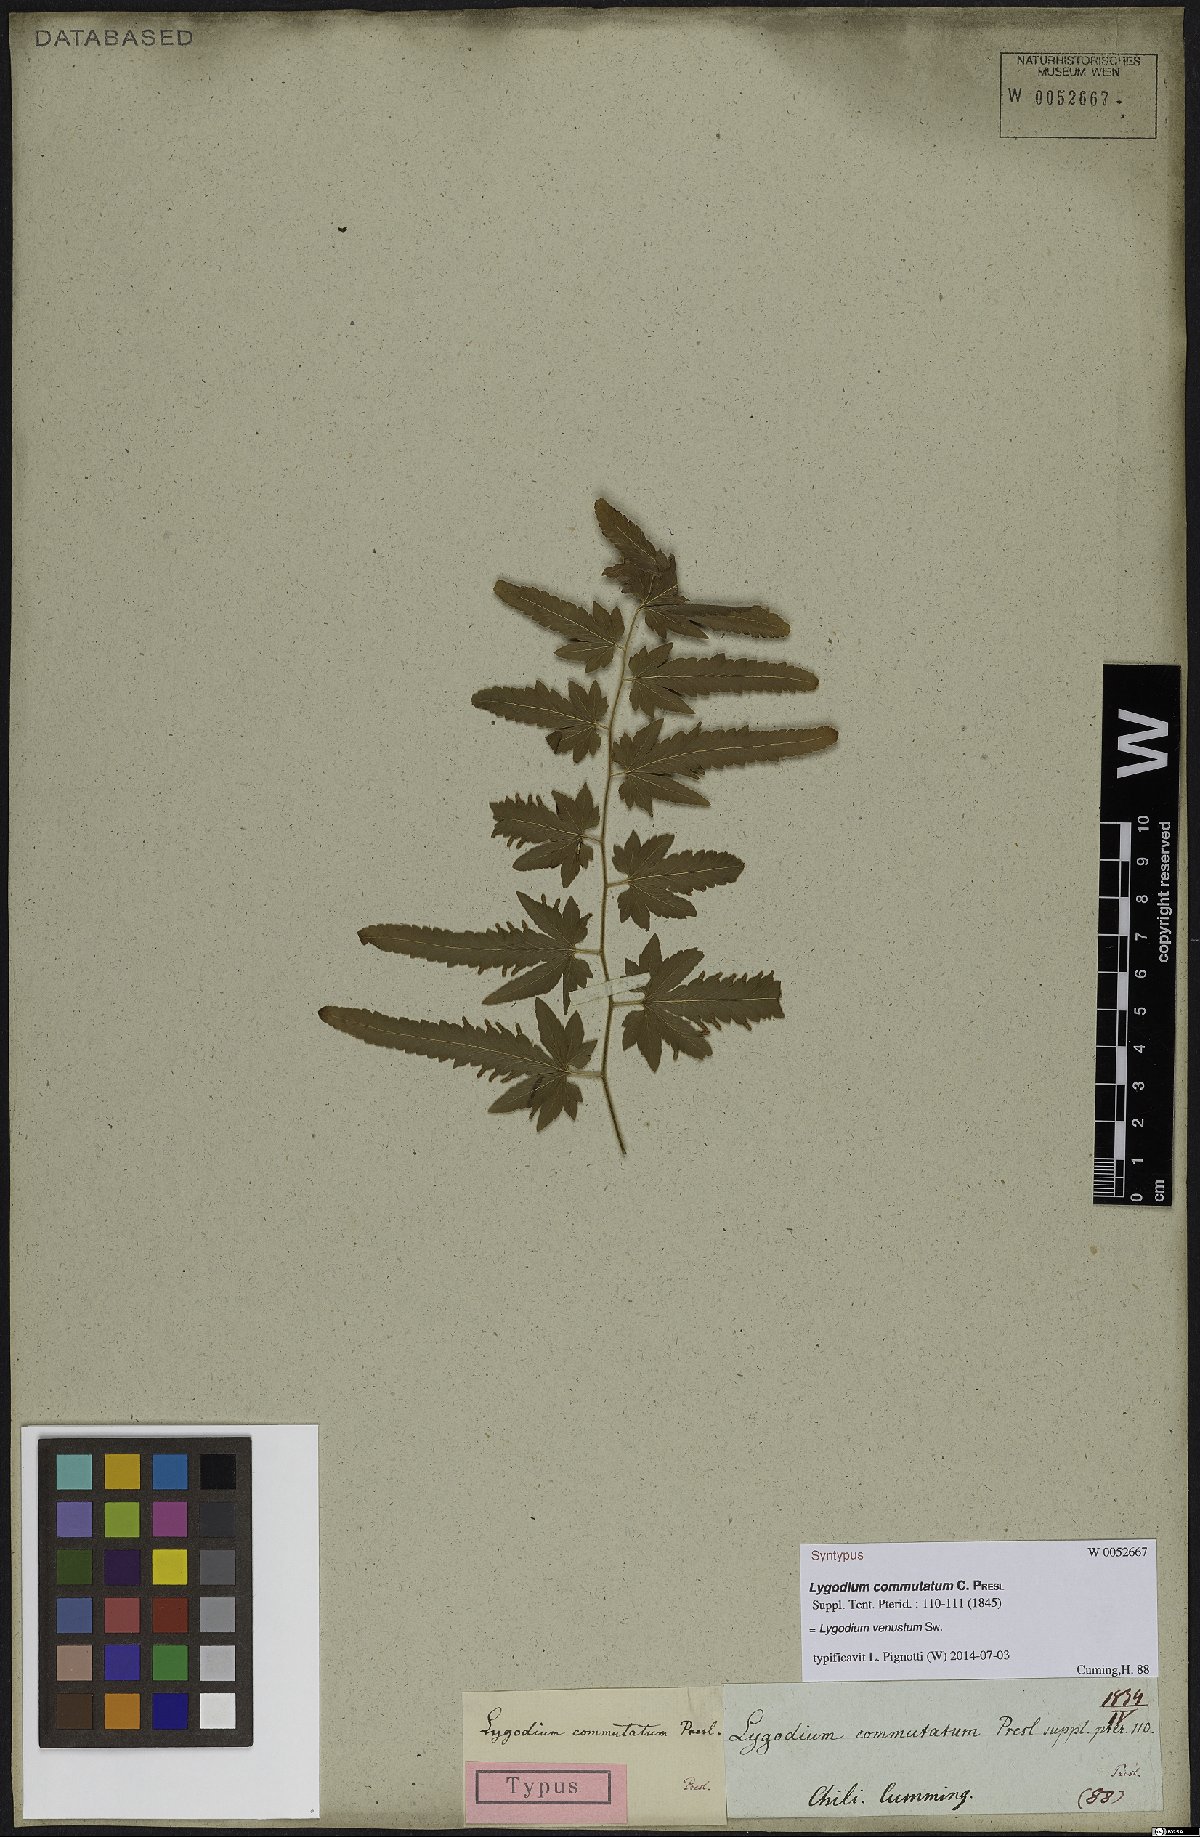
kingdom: Plantae
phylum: Tracheophyta
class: Polypodiopsida
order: Schizaeales
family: Lygodiaceae
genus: Lygodium
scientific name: Lygodium venustum
